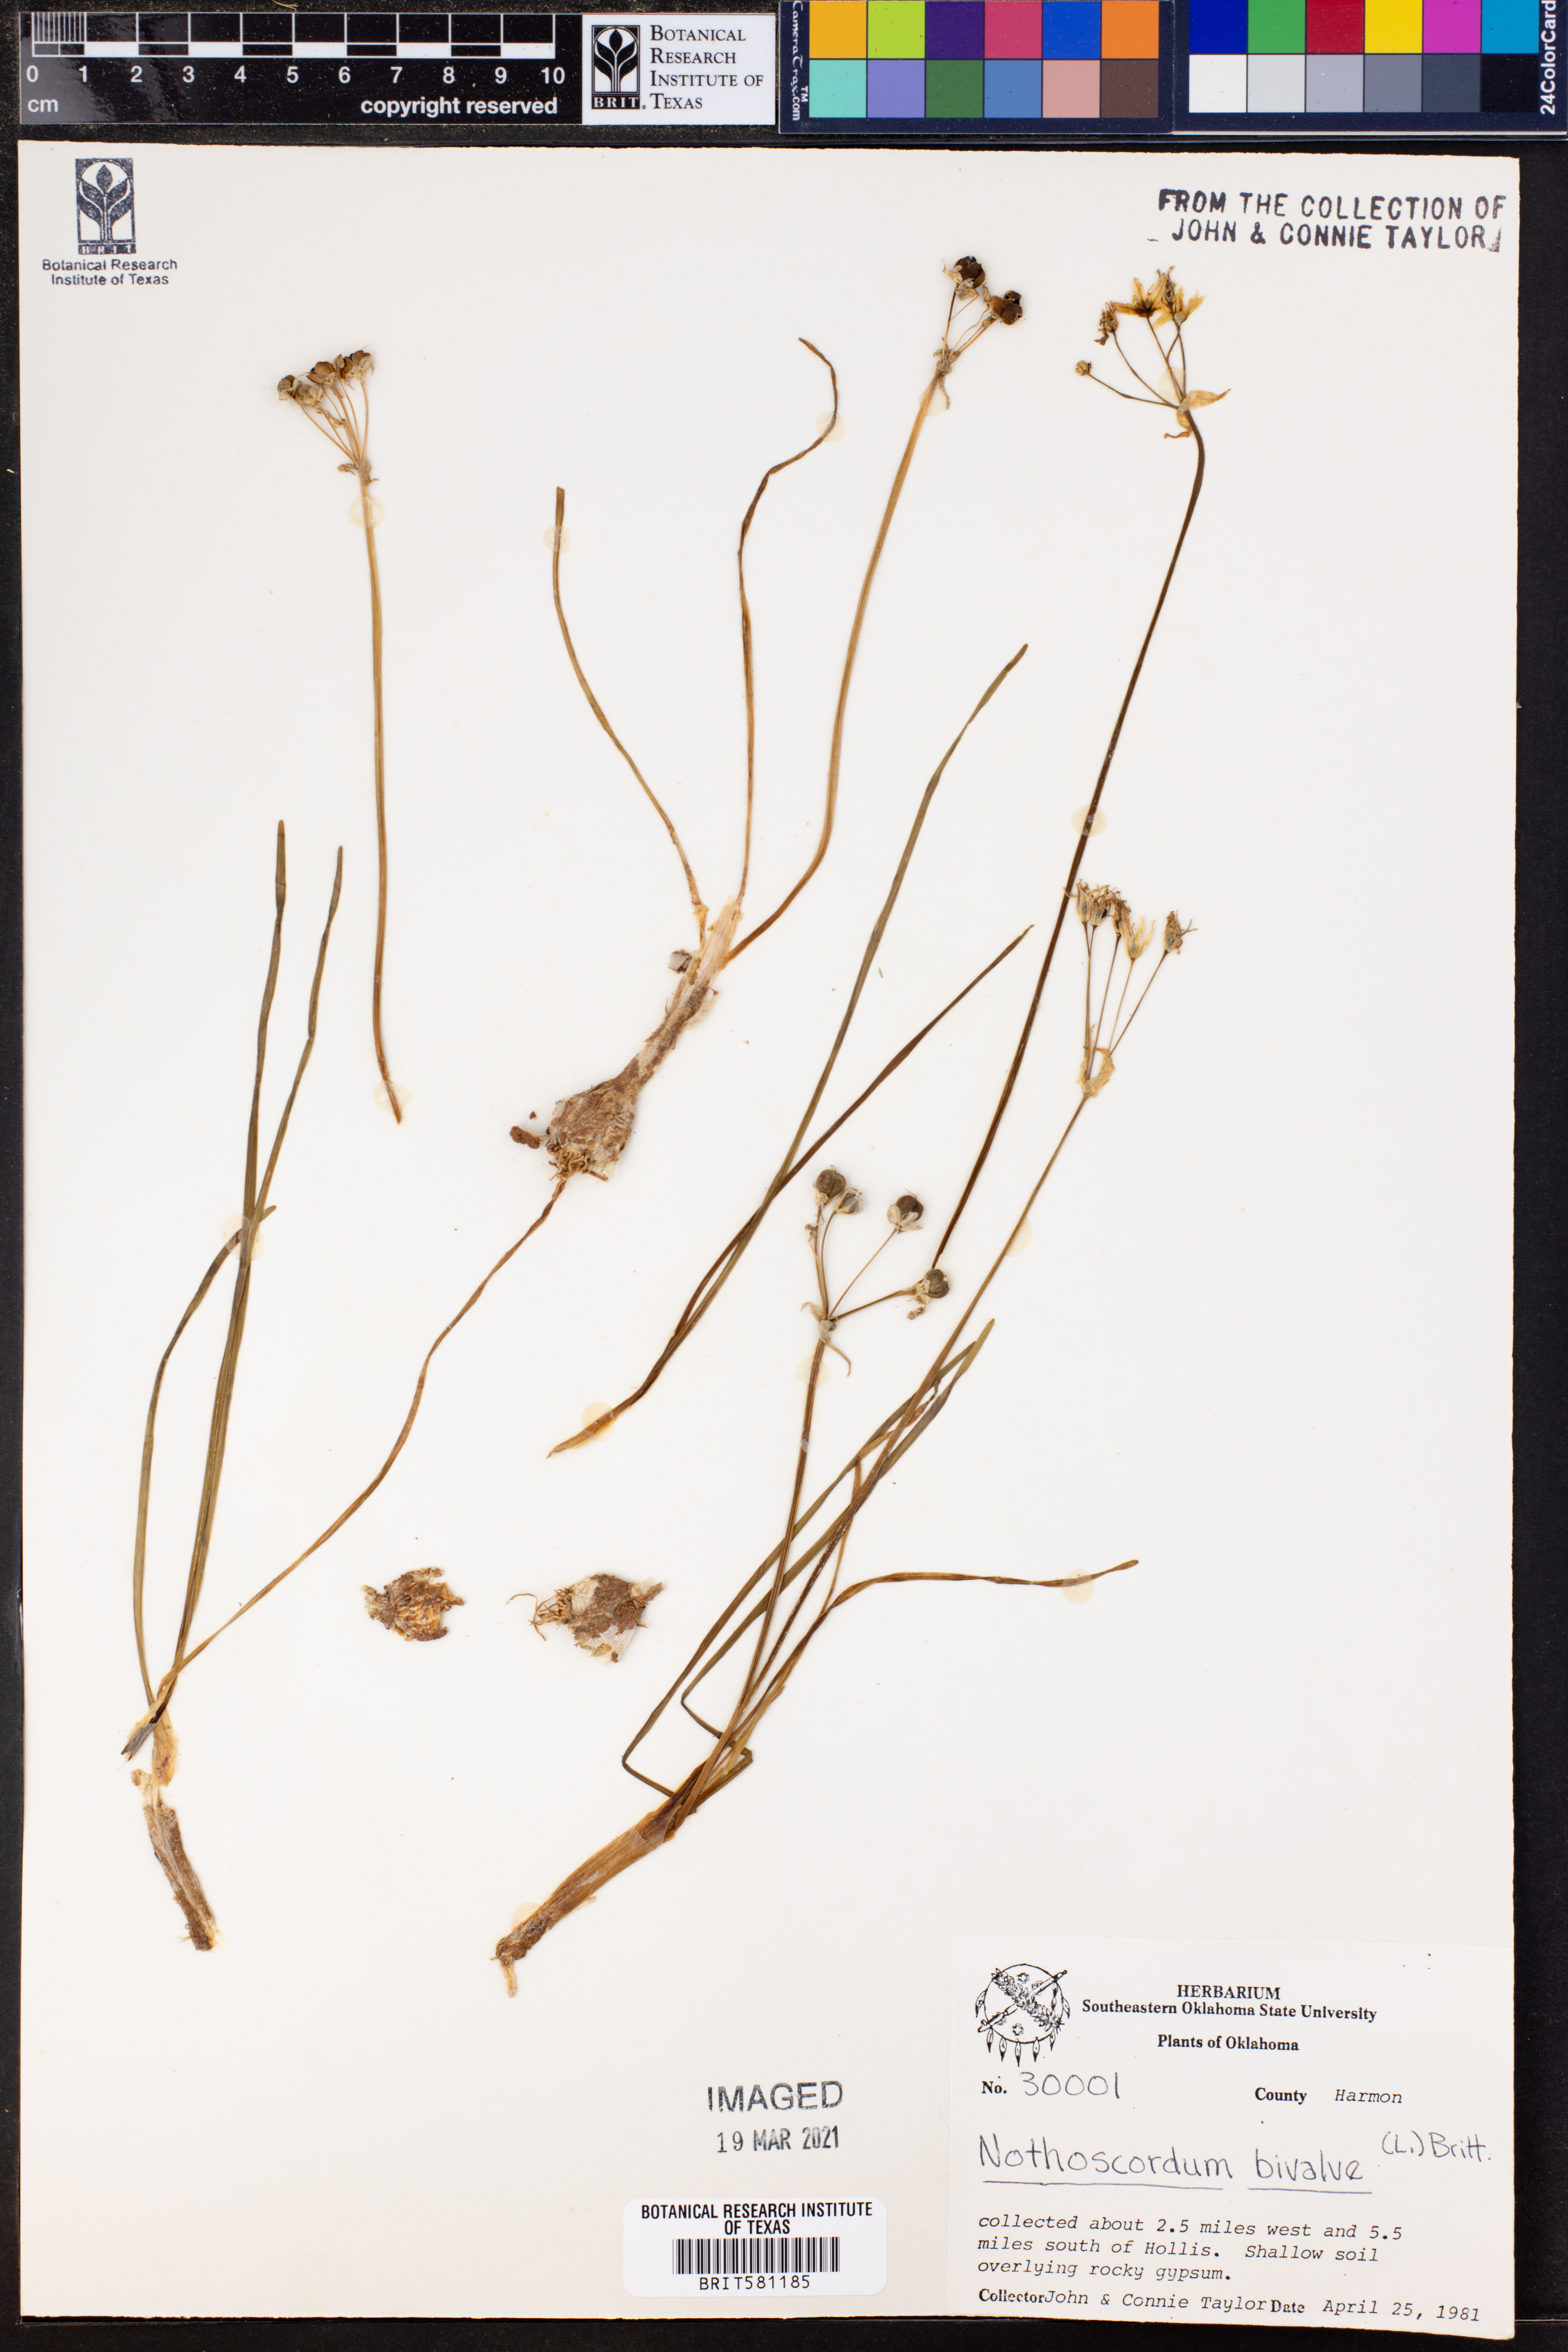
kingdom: Plantae
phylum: Tracheophyta
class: Liliopsida
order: Asparagales
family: Amaryllidaceae
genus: Nothoscordum
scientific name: Nothoscordum bivalve
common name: Crow-poison
